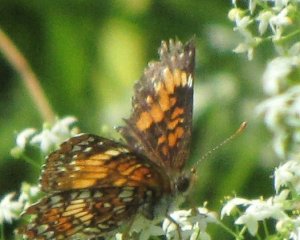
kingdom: Animalia
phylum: Arthropoda
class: Insecta
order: Lepidoptera
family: Nymphalidae
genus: Chlosyne
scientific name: Chlosyne harrisii
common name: Harris's Checkerspot
